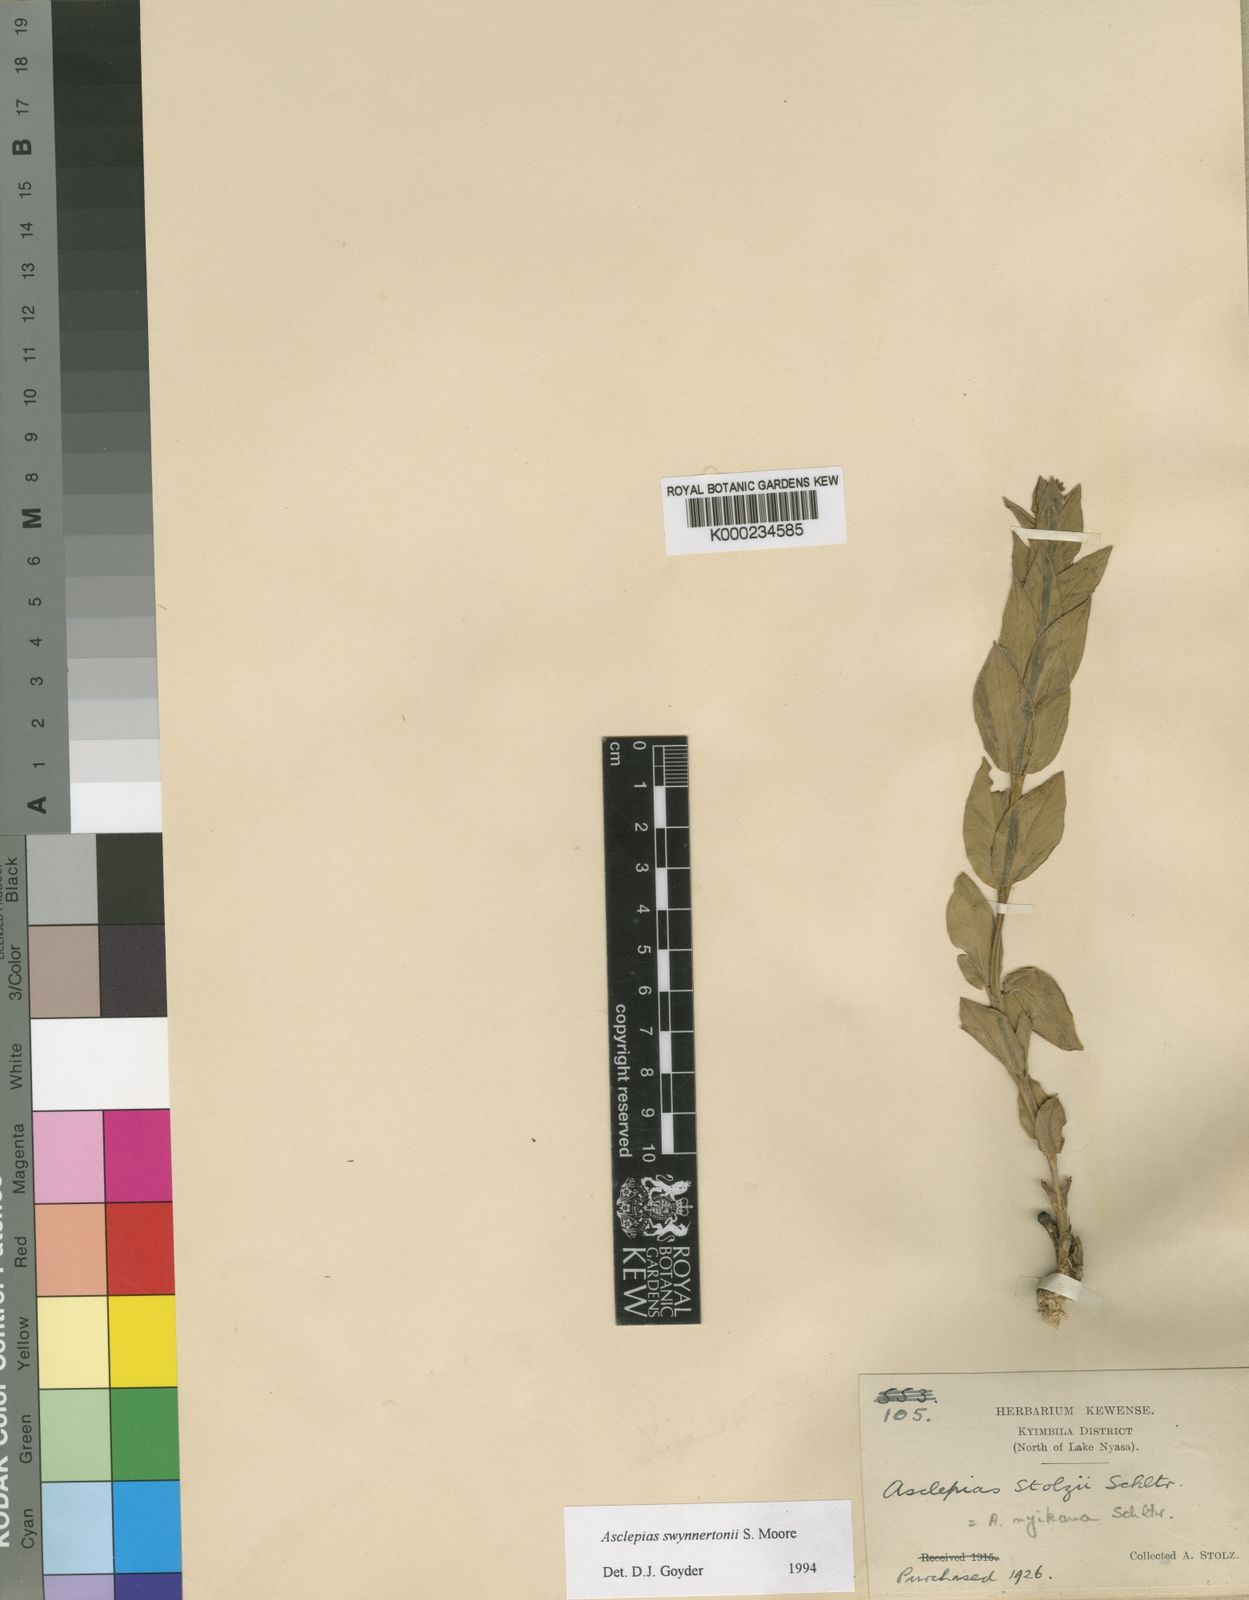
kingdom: Plantae
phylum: Tracheophyta
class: Magnoliopsida
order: Gentianales
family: Apocynaceae
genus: Gomphocarpus
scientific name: Gomphocarpus swynnertonii
